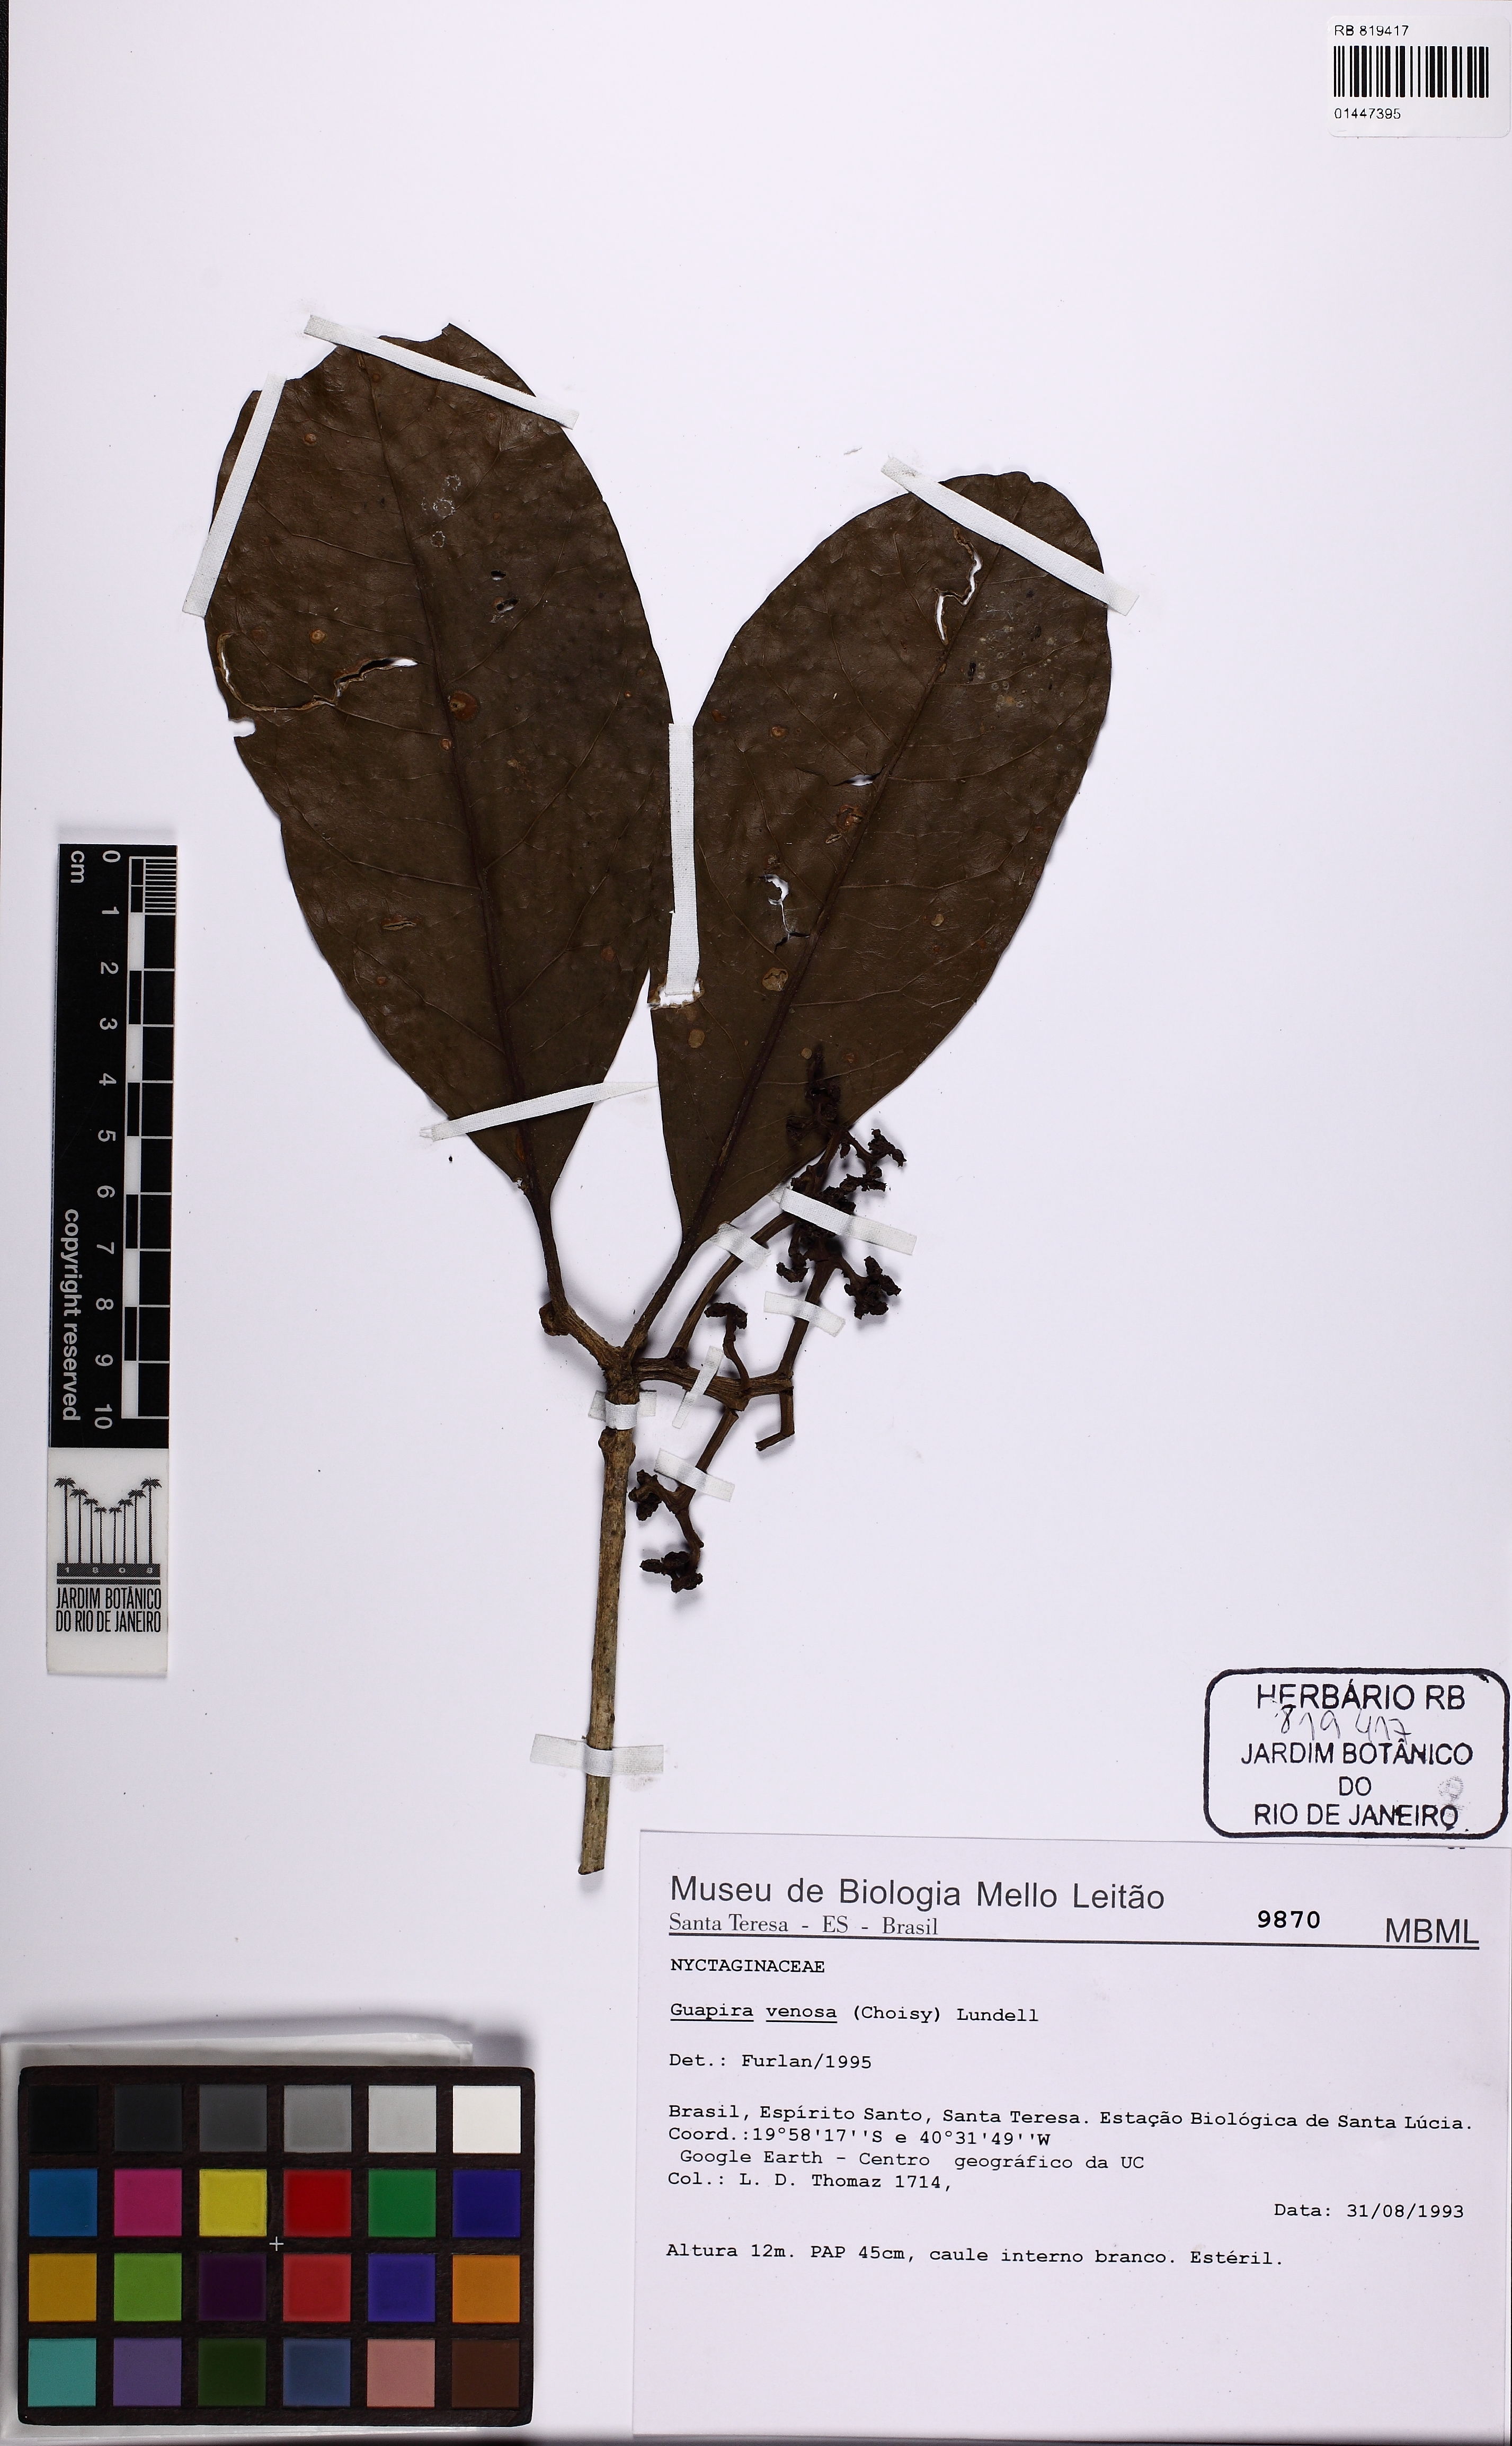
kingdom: Plantae
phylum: Tracheophyta
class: Magnoliopsida
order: Caryophyllales
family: Nyctaginaceae
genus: Guapira
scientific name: Guapira venosa
